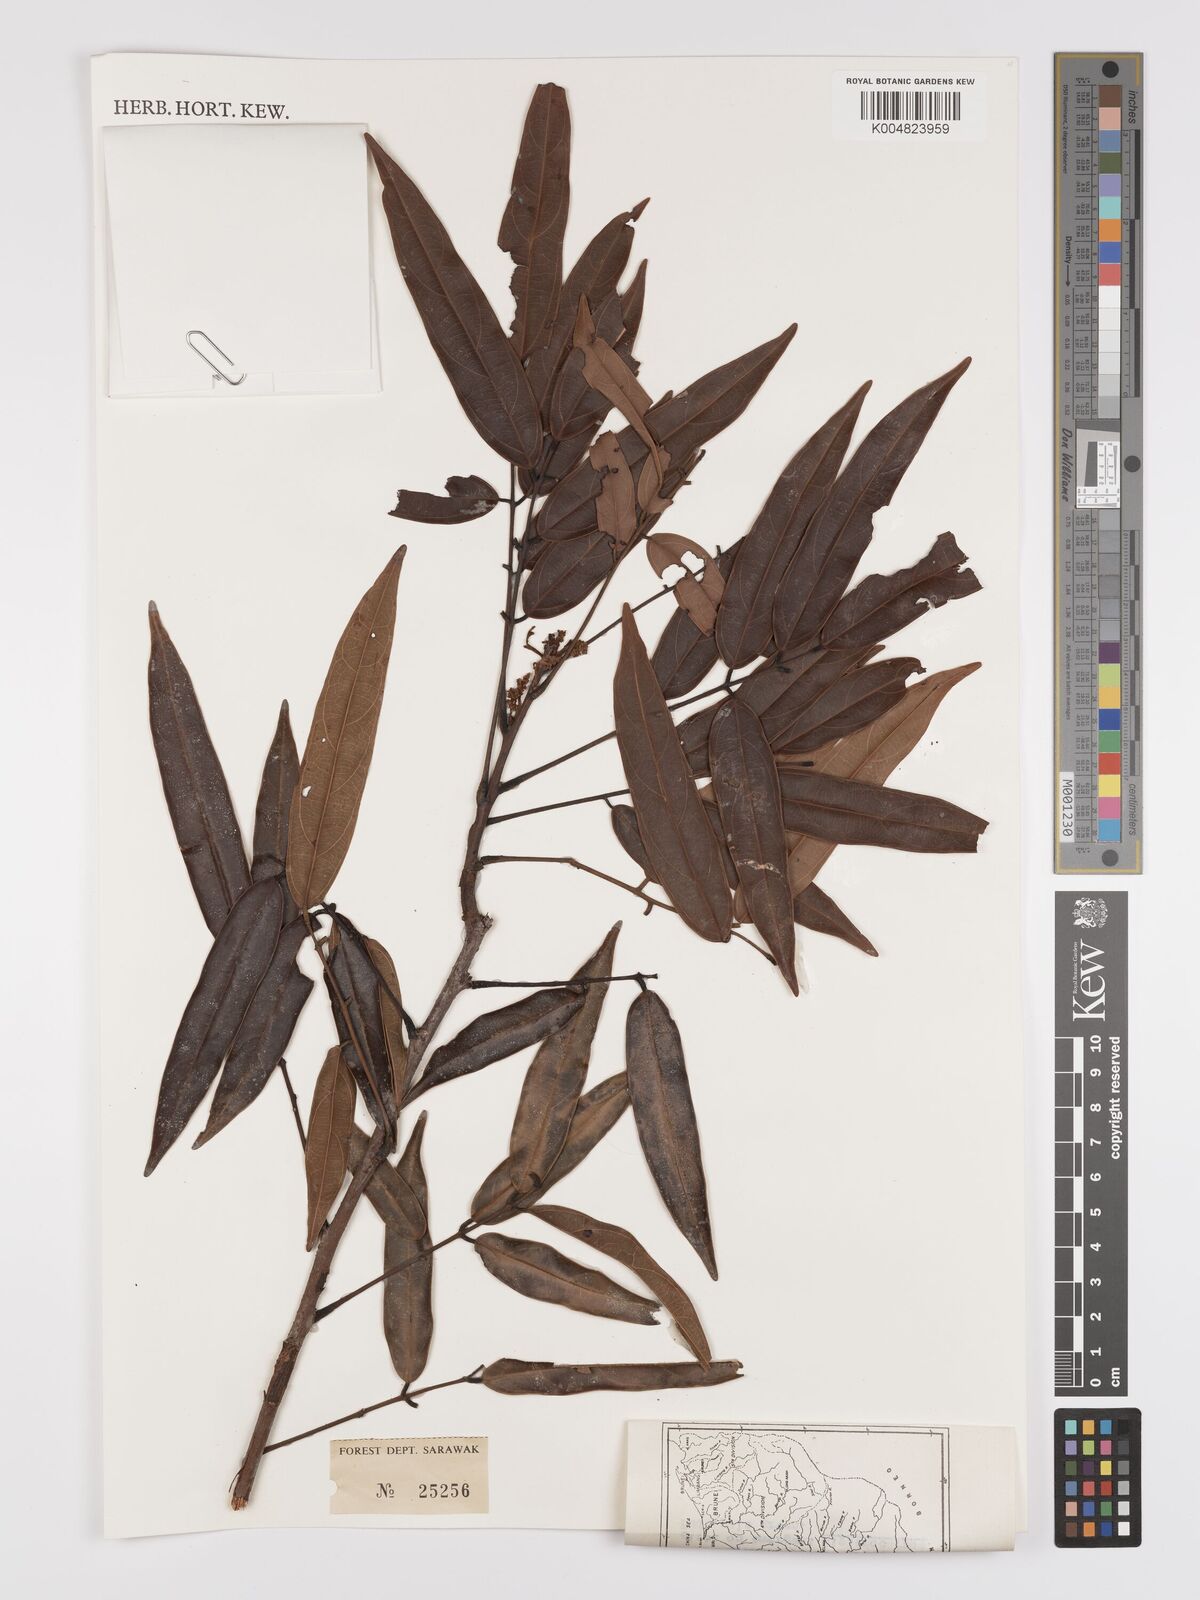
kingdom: Plantae
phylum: Tracheophyta
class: Magnoliopsida
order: Oxalidales
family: Connaraceae
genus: Connarus
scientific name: Connarus odoratus
